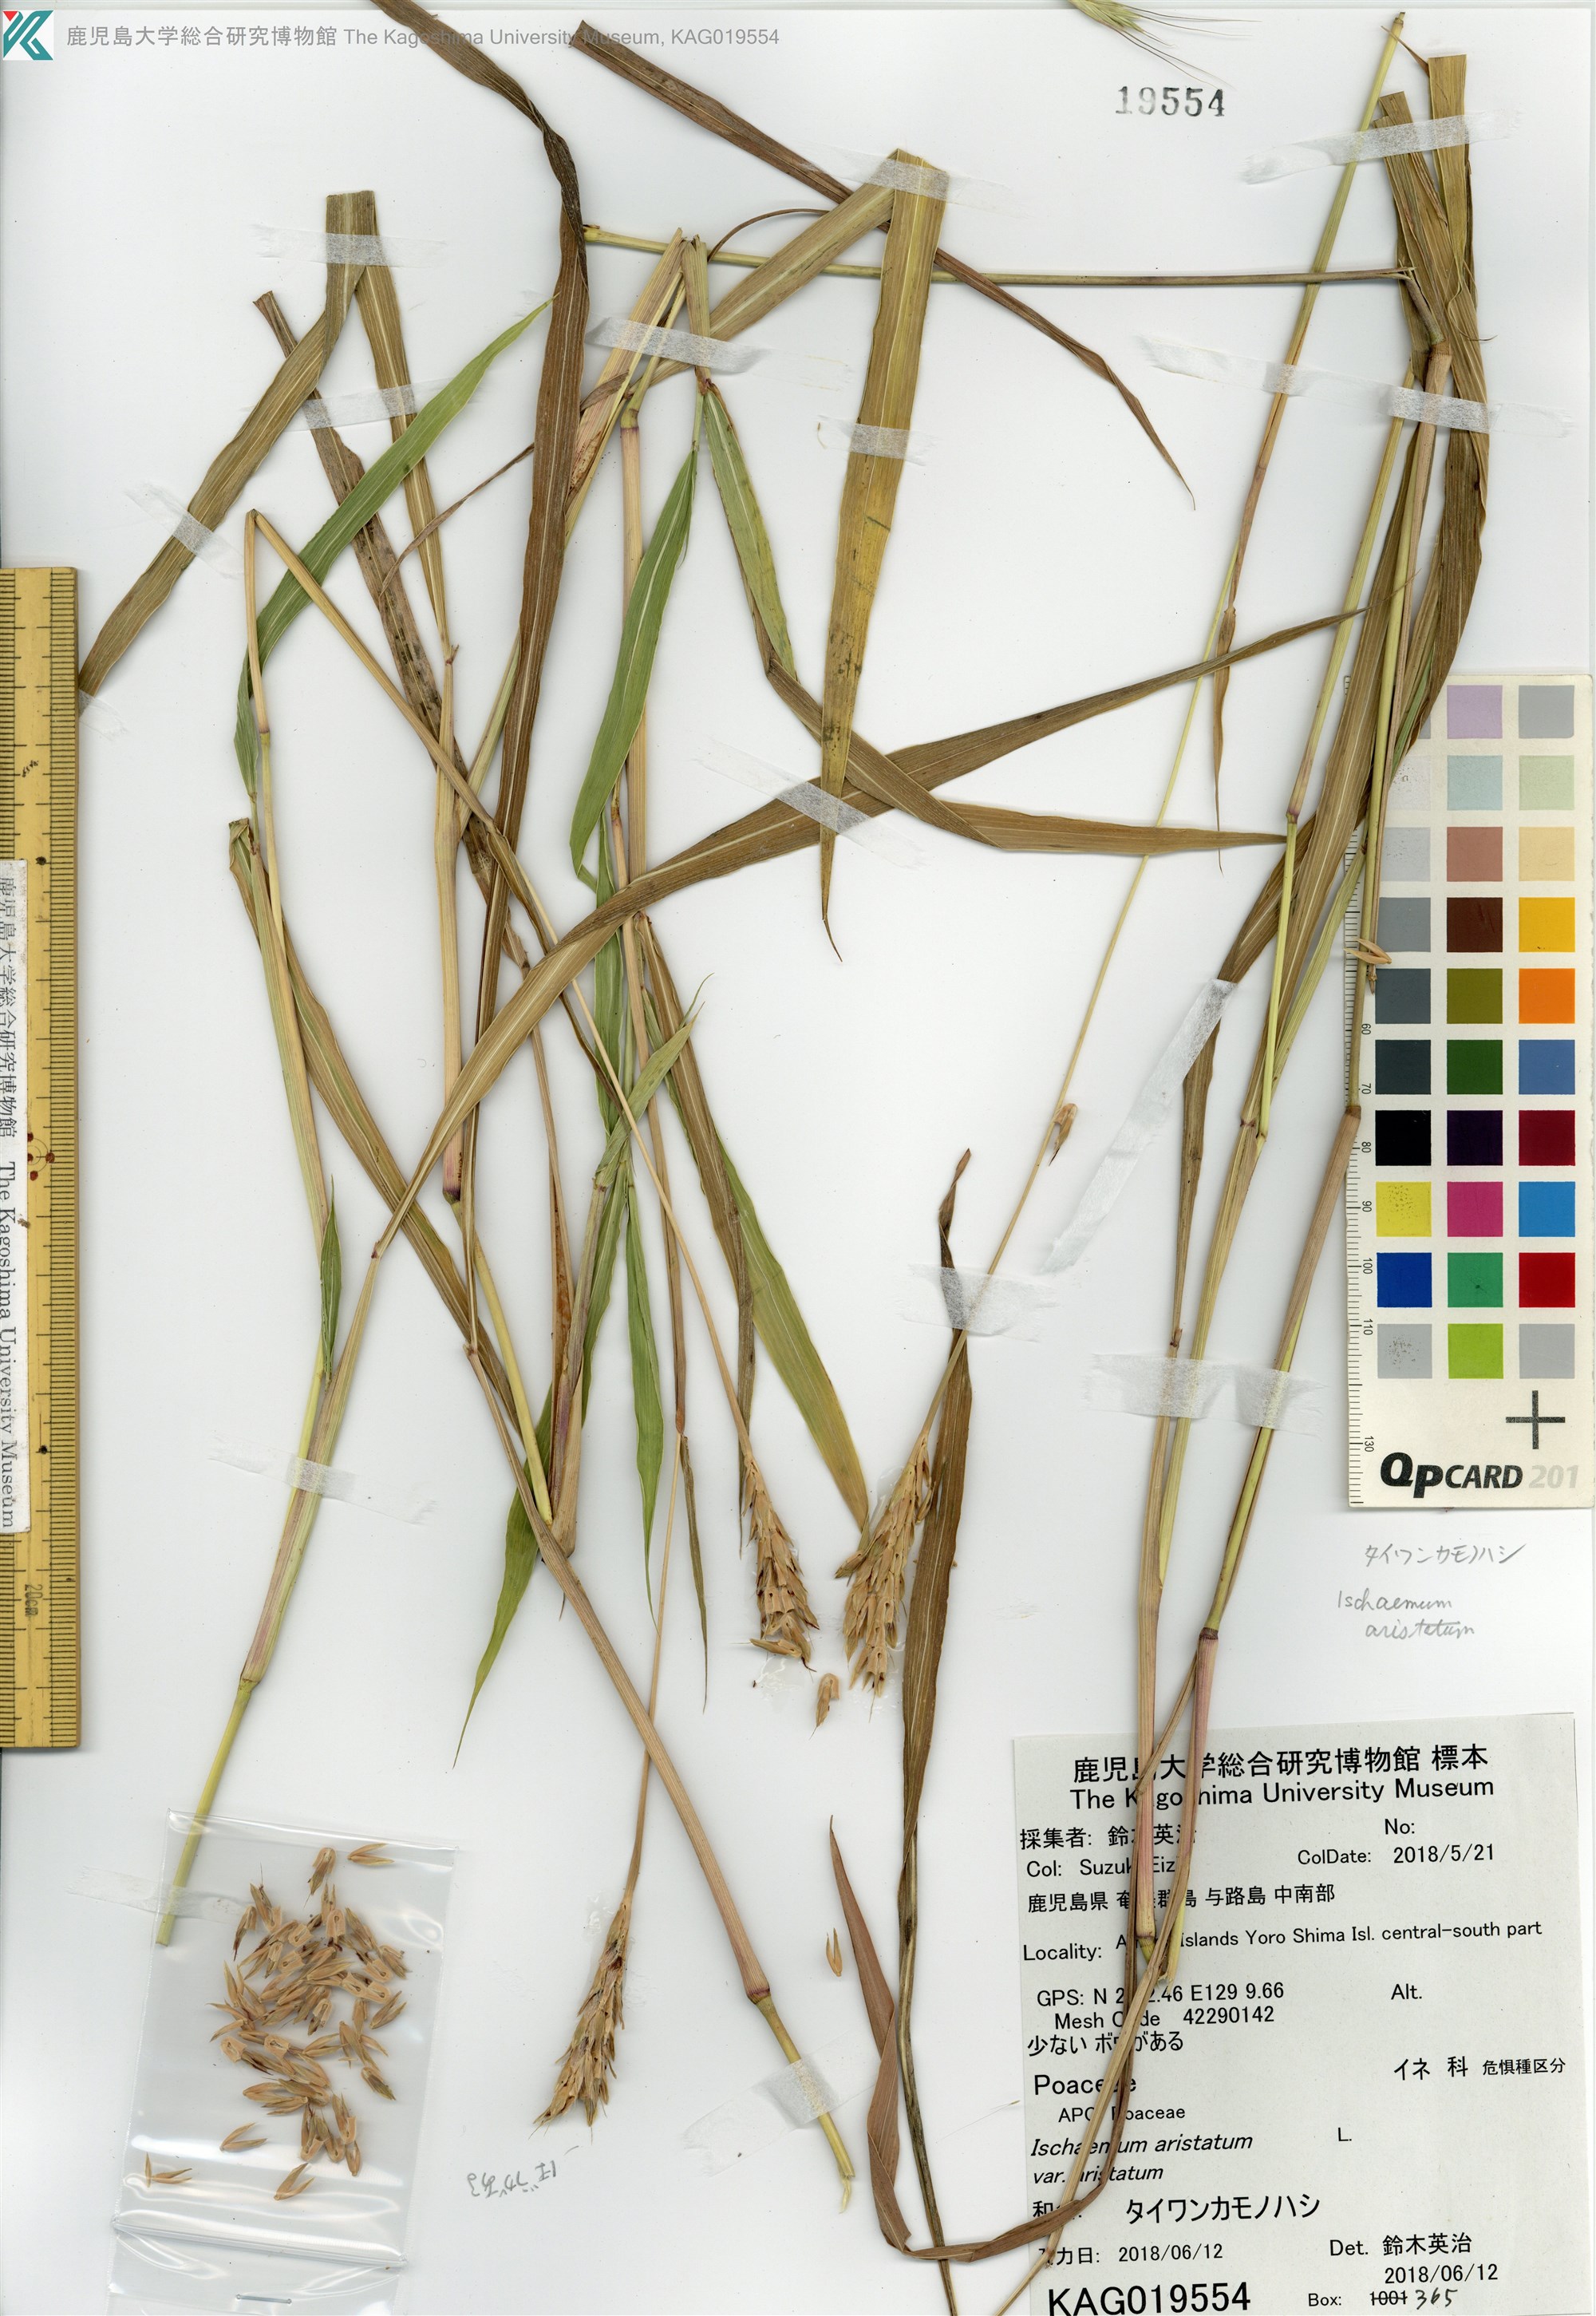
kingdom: Plantae
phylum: Tracheophyta
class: Liliopsida
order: Poales
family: Poaceae
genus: Ischaemum
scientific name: Ischaemum aristatum
